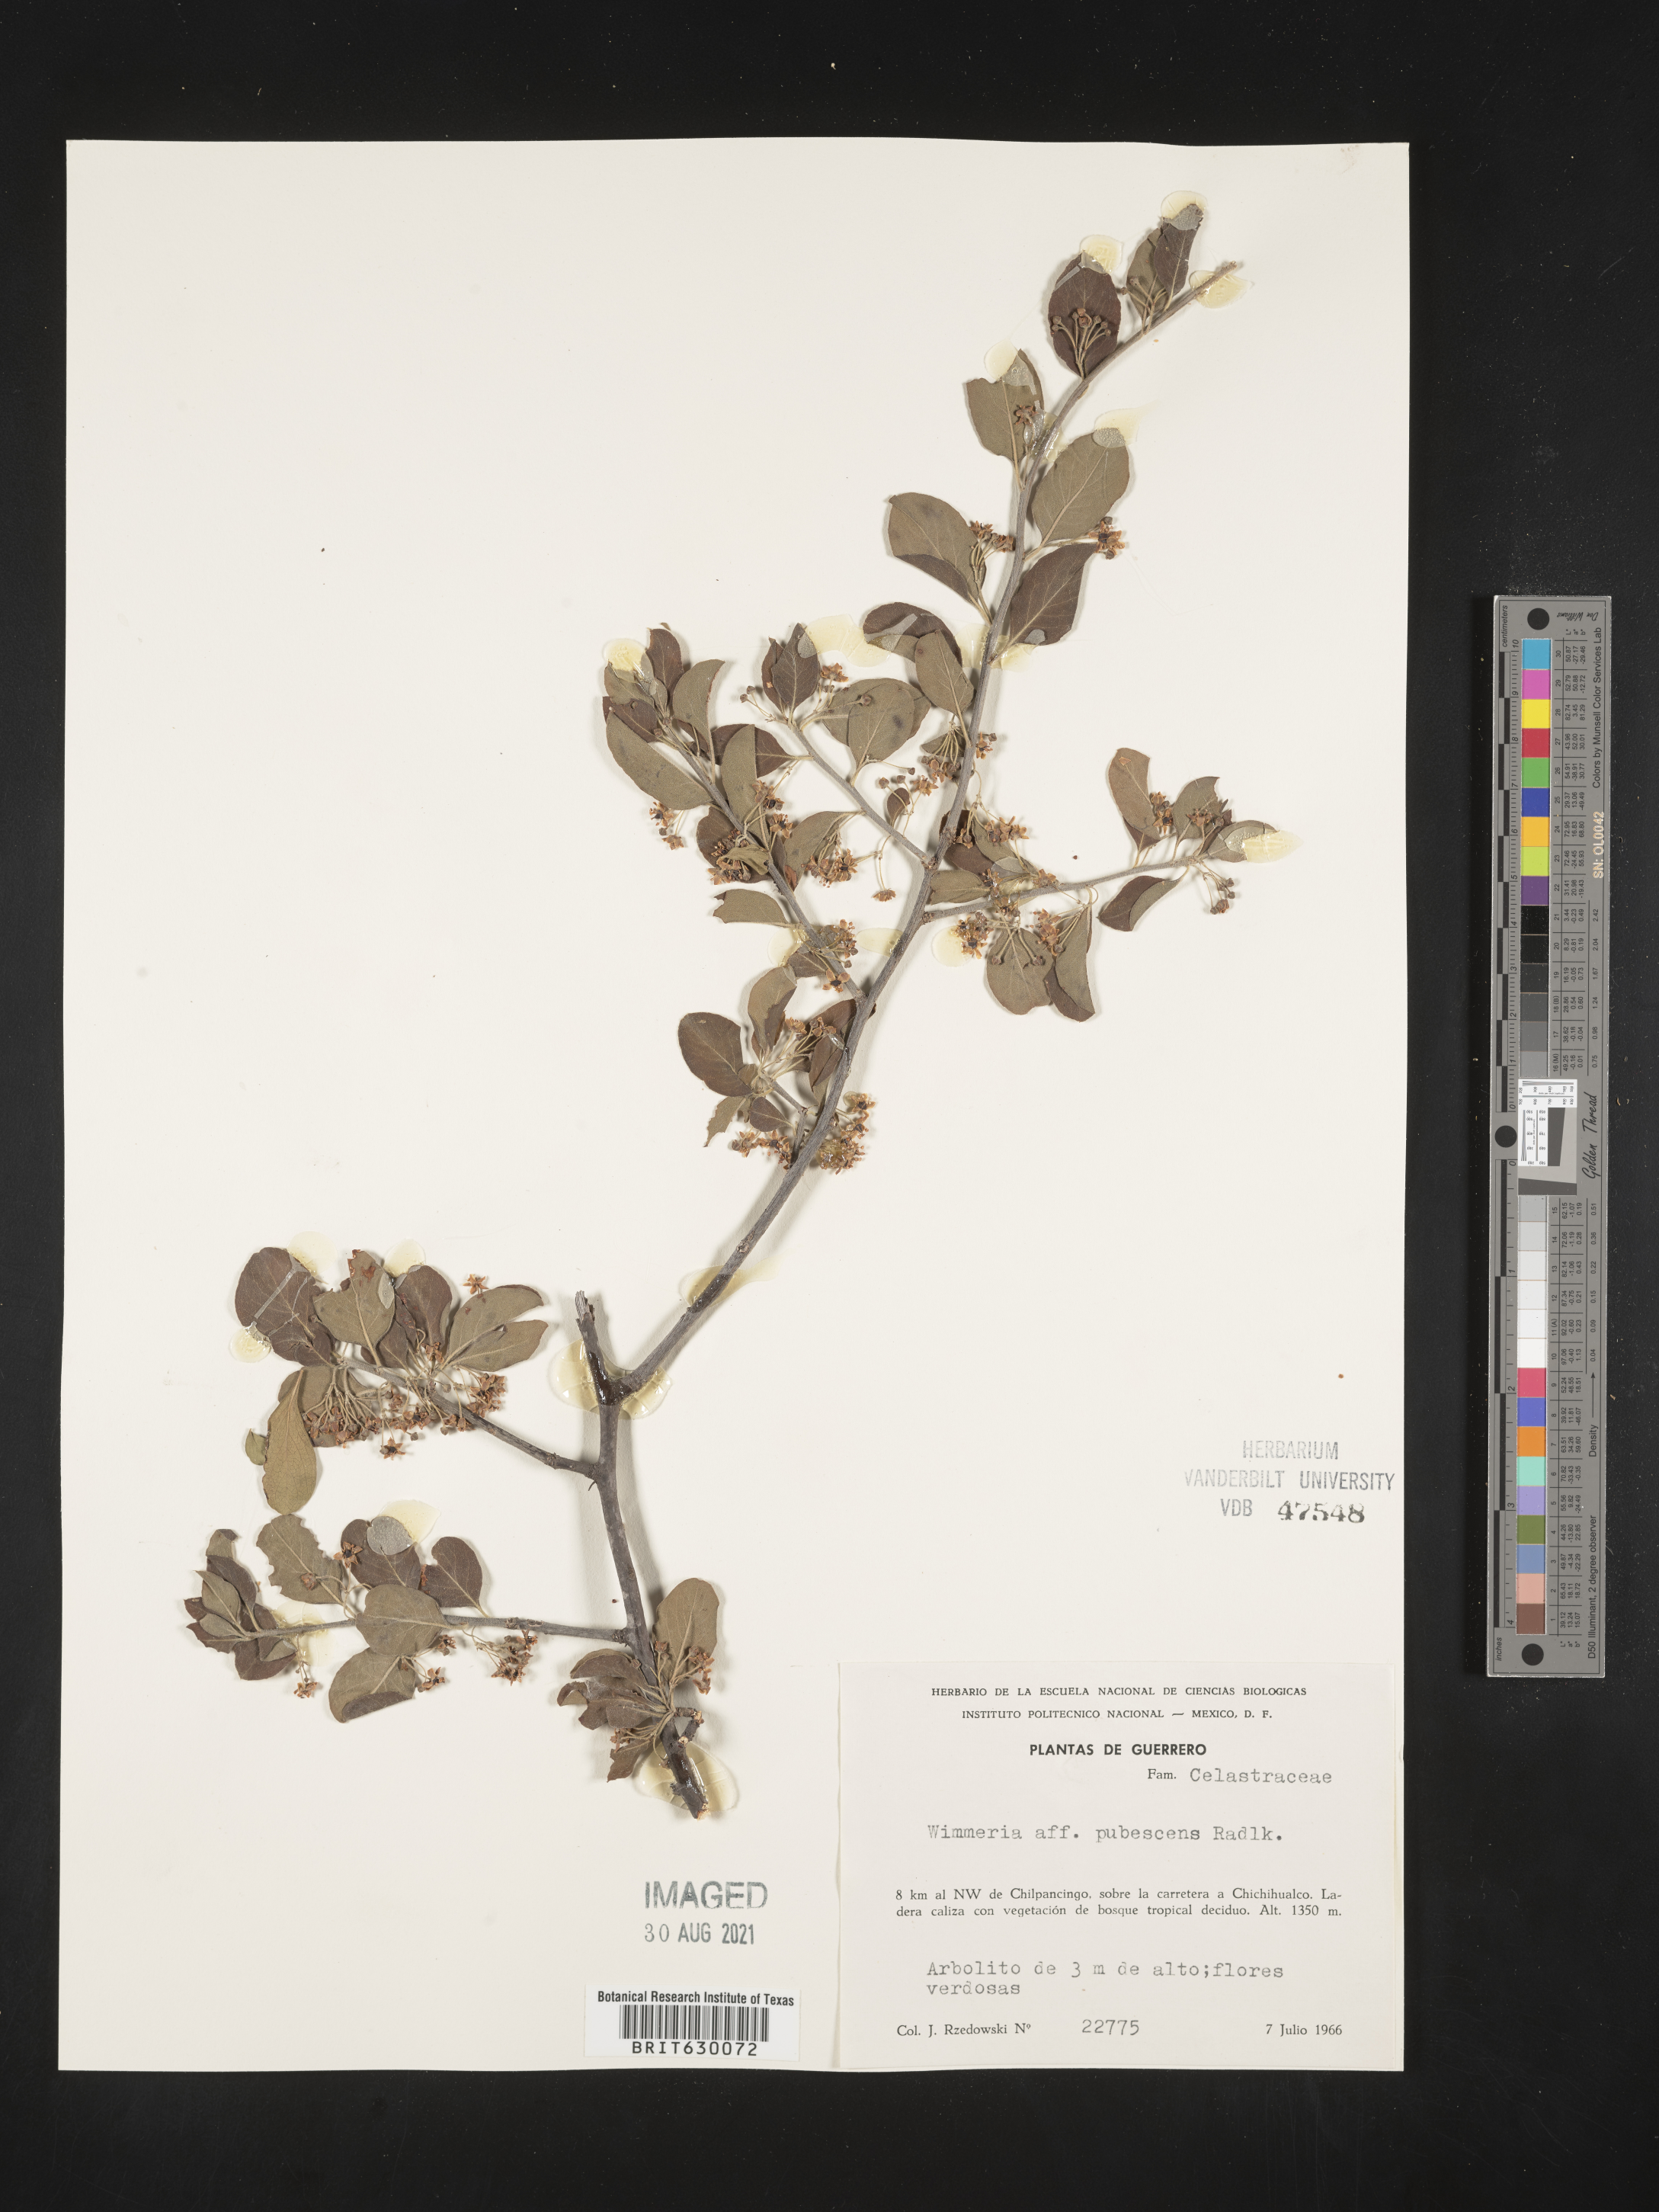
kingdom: Plantae
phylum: Tracheophyta
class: Magnoliopsida
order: Celastrales
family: Celastraceae
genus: Wimmeria
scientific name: Wimmeria
